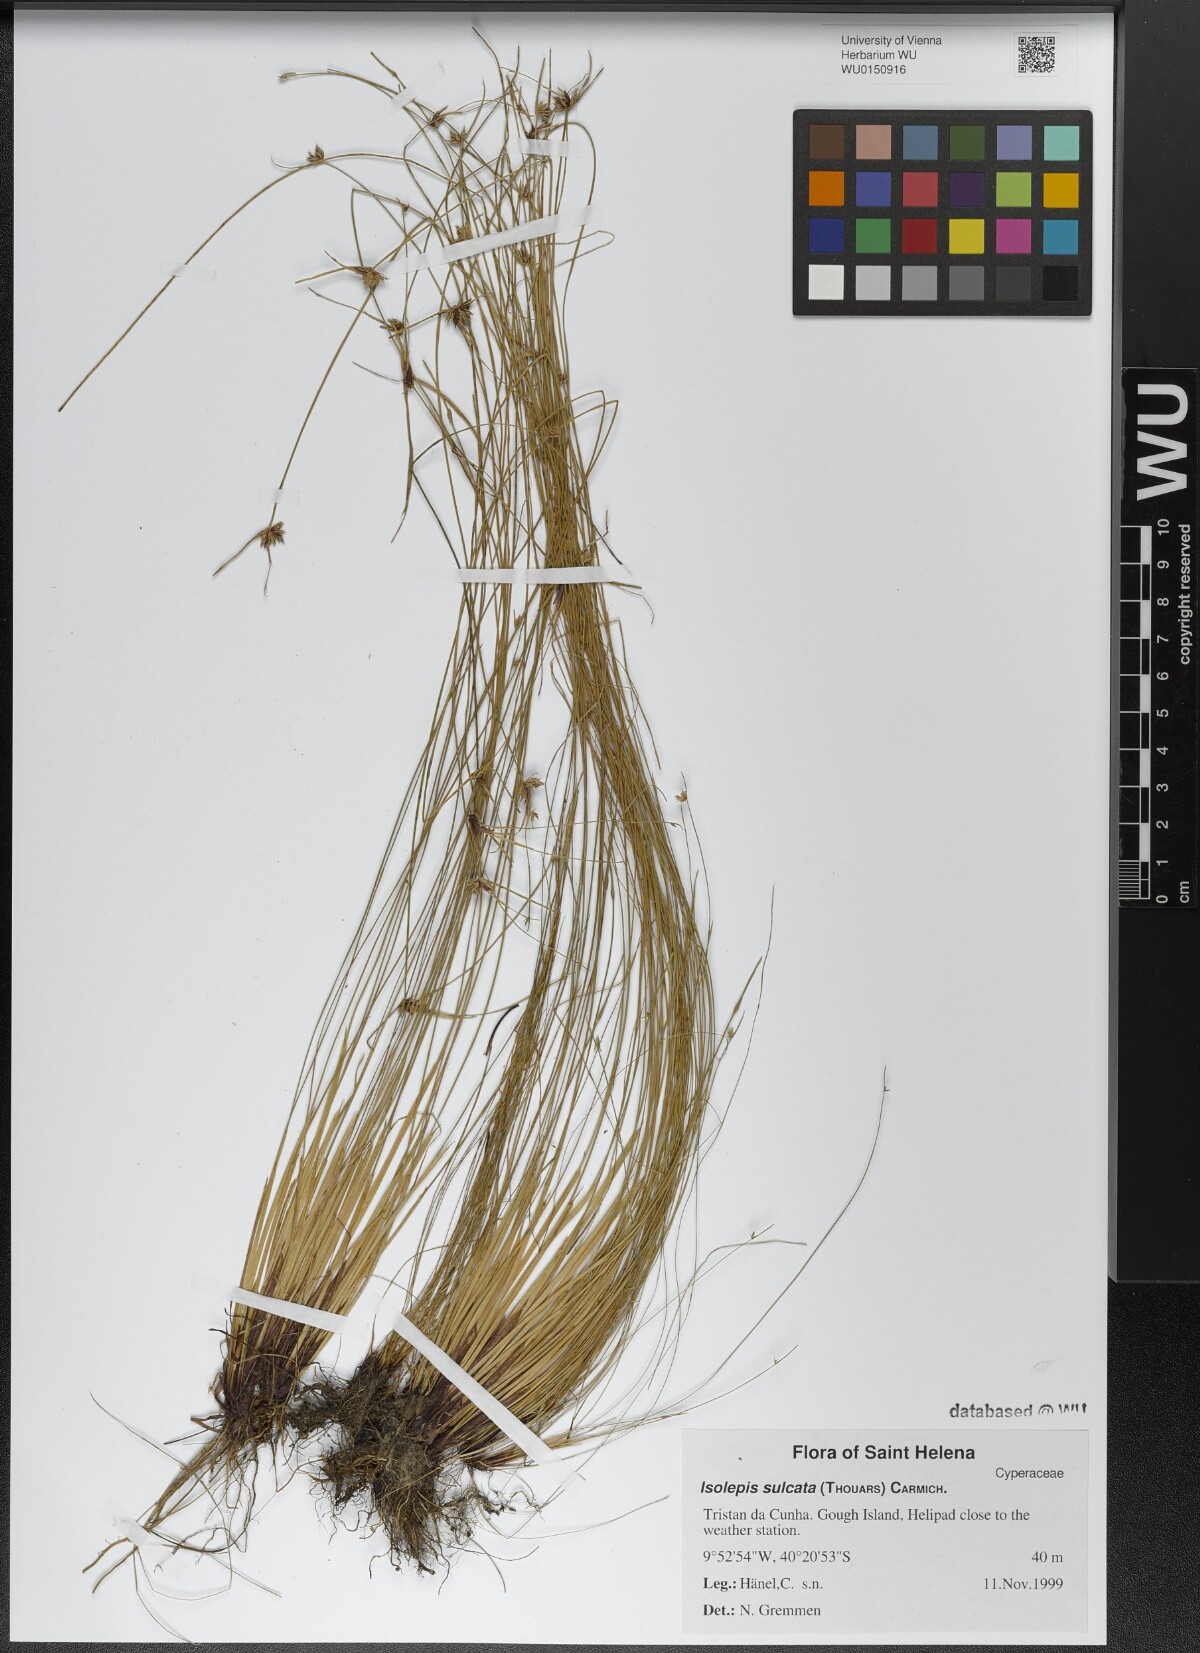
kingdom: Plantae
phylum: Tracheophyta
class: Liliopsida
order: Poales
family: Cyperaceae
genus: Isolepis
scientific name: Isolepis sulcata
